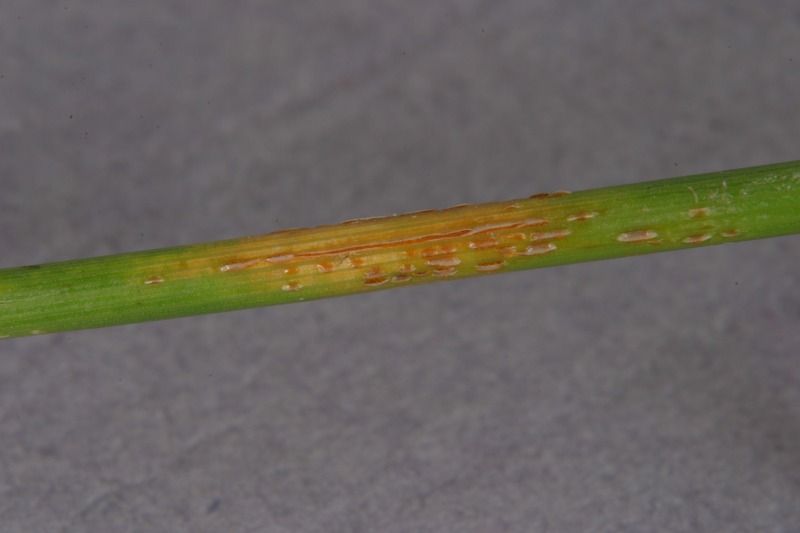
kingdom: Fungi
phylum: Basidiomycota
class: Pucciniomycetes
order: Pucciniales
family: Pucciniaceae
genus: Puccinia
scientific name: Puccinia graminis
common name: Black stem rust
